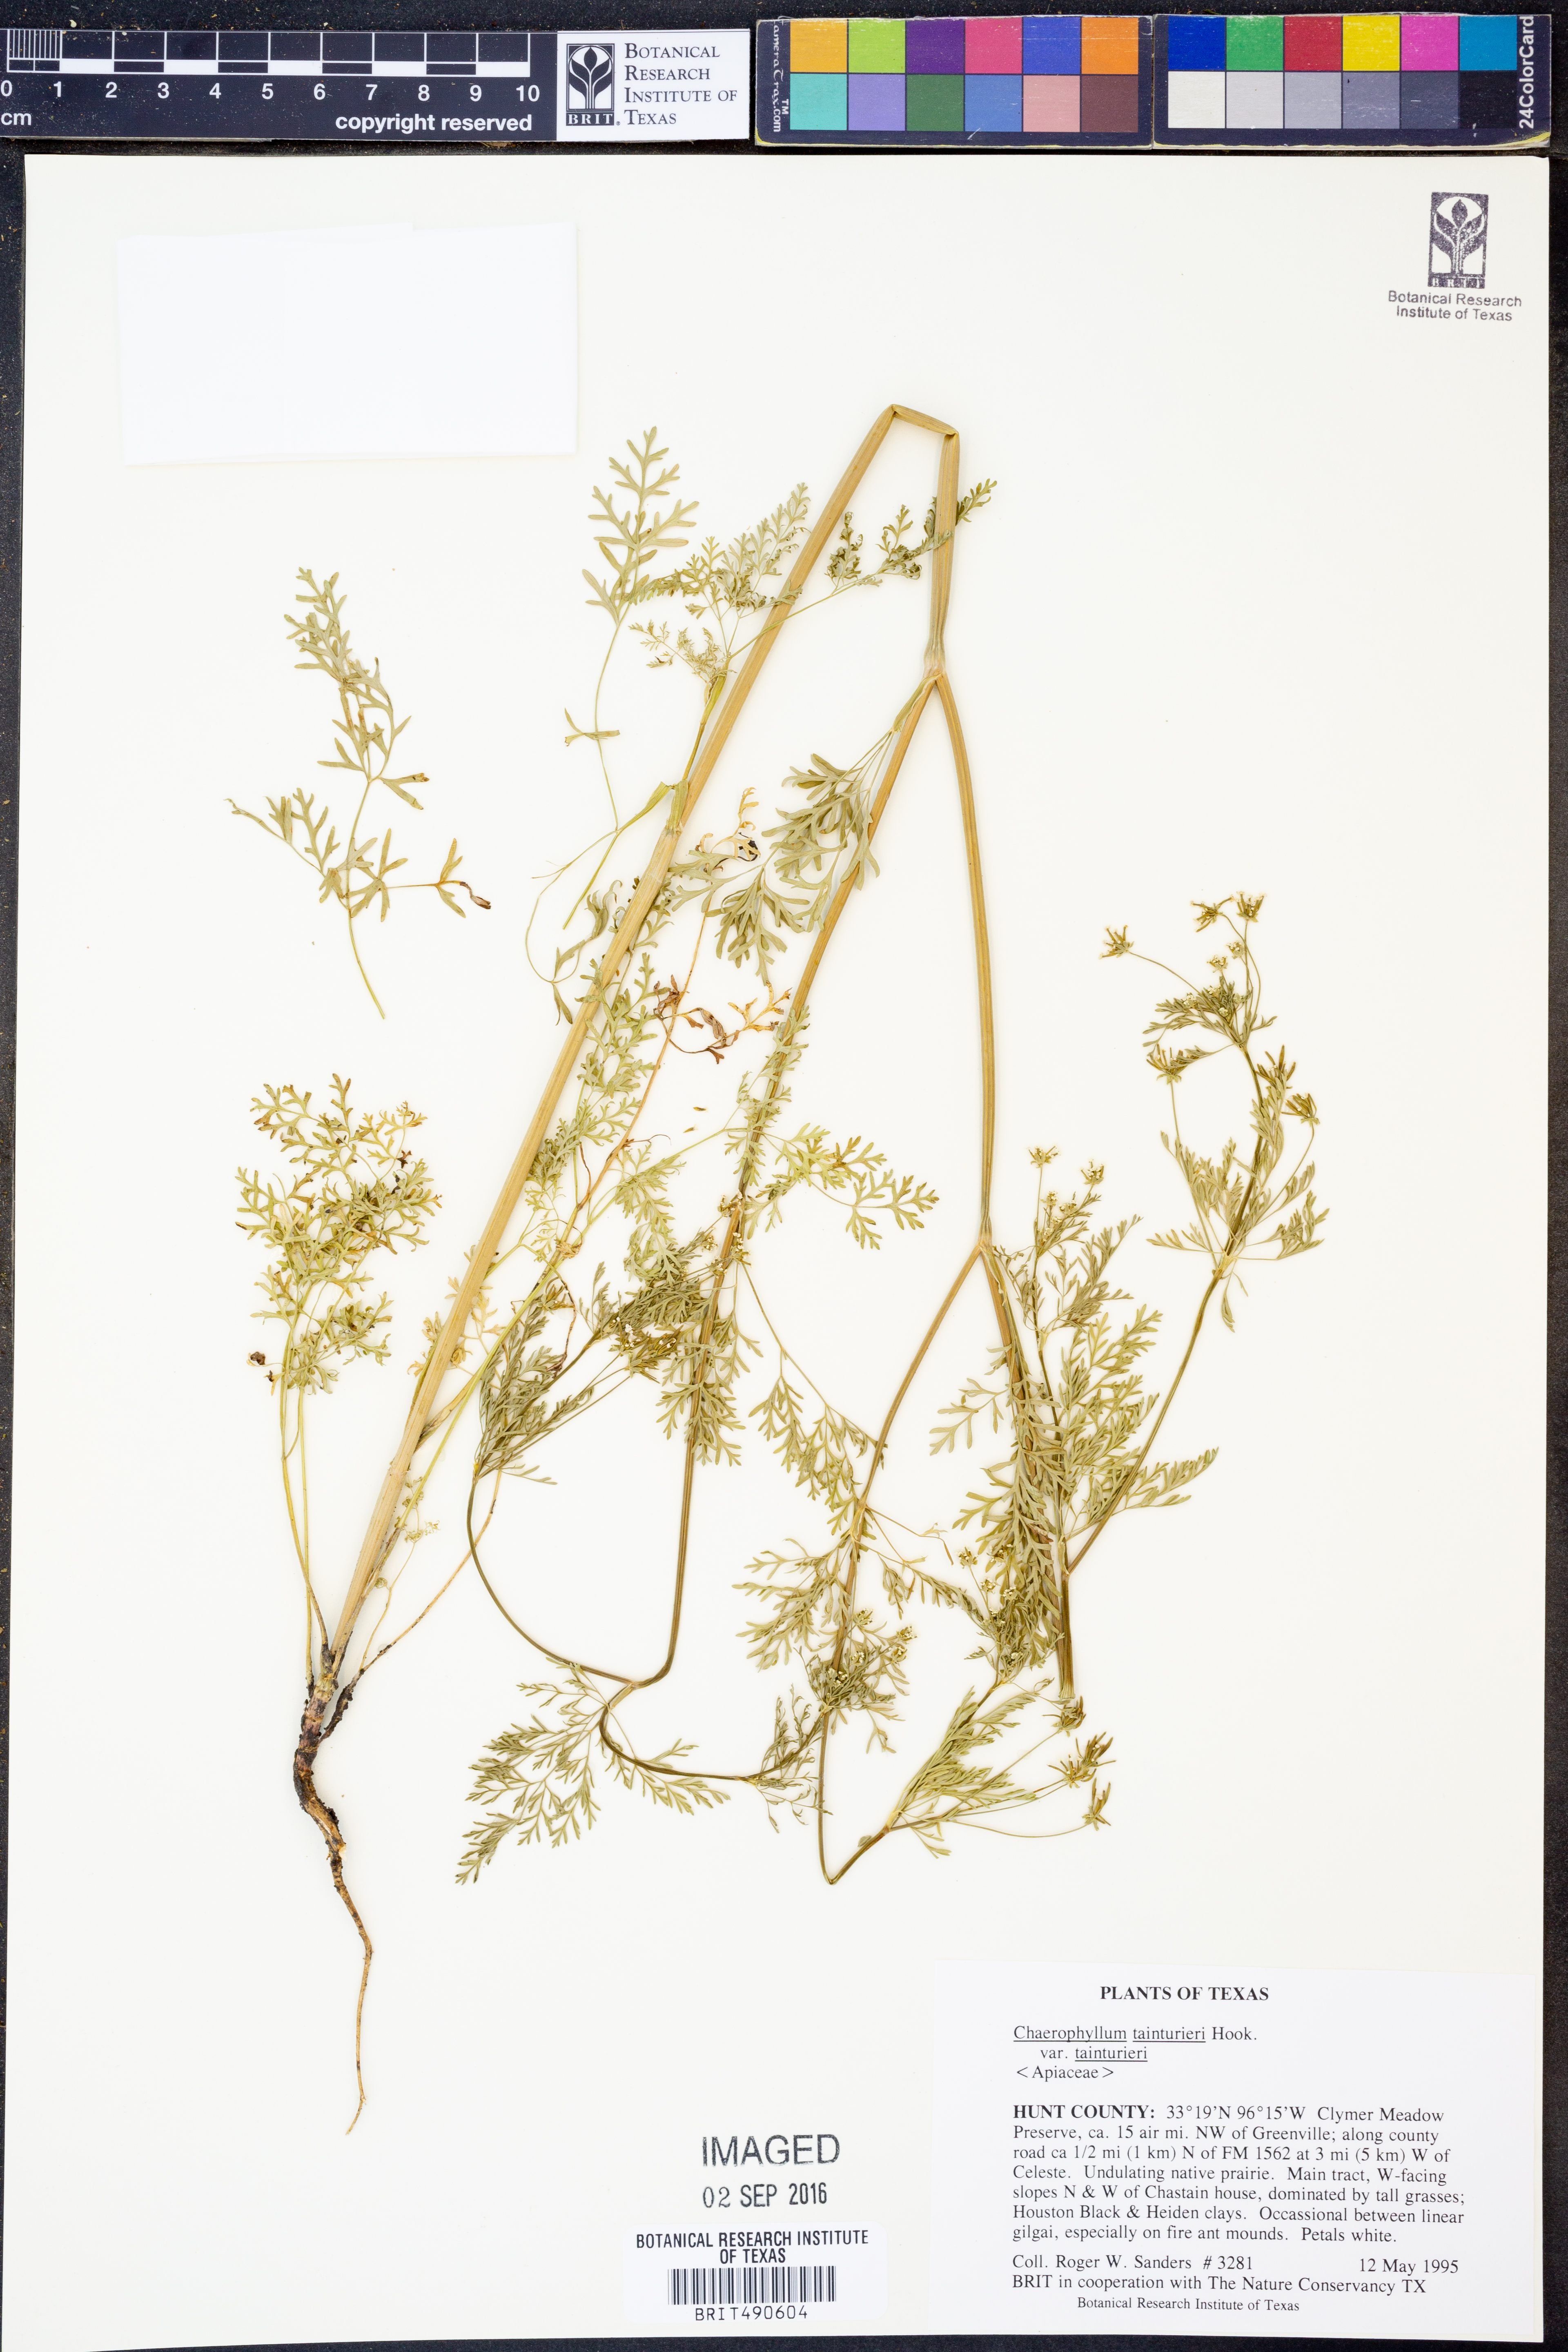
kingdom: Plantae
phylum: Tracheophyta
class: Magnoliopsida
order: Apiales
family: Apiaceae
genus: Chaerophyllum
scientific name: Chaerophyllum tainturieri
